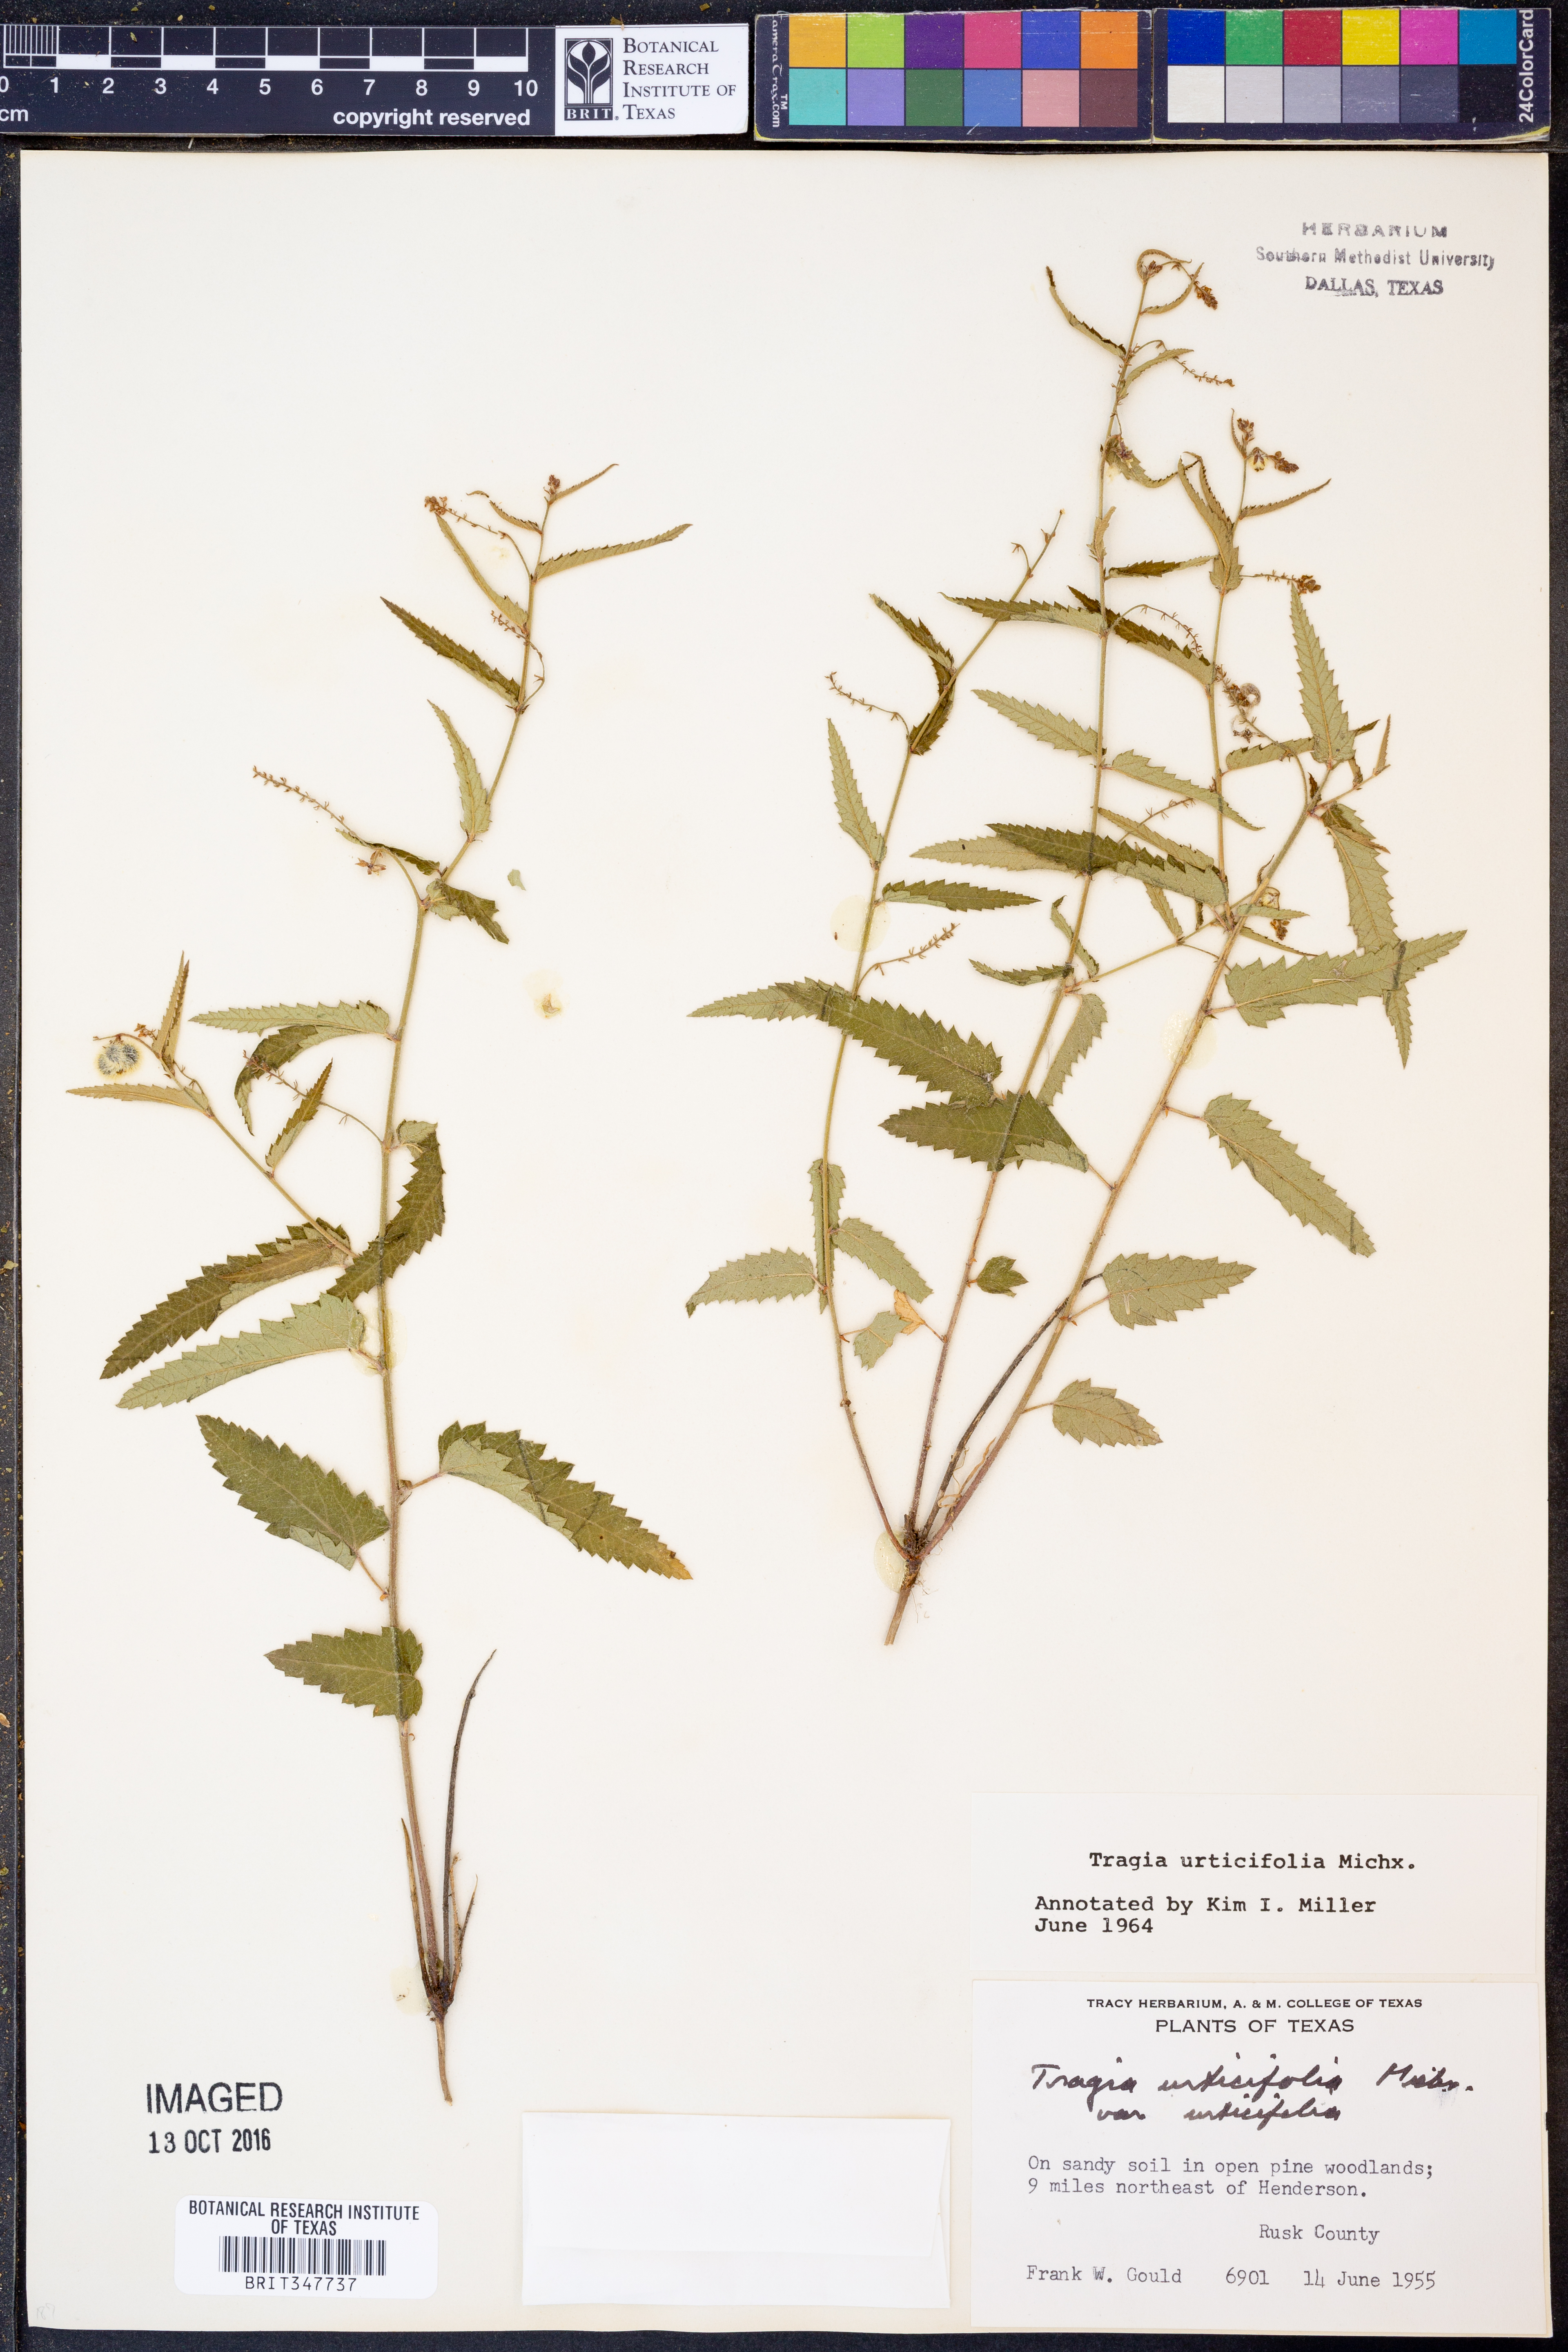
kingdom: Plantae
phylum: Tracheophyta
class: Magnoliopsida
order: Malpighiales
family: Euphorbiaceae
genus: Tragia
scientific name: Tragia urticifolia
